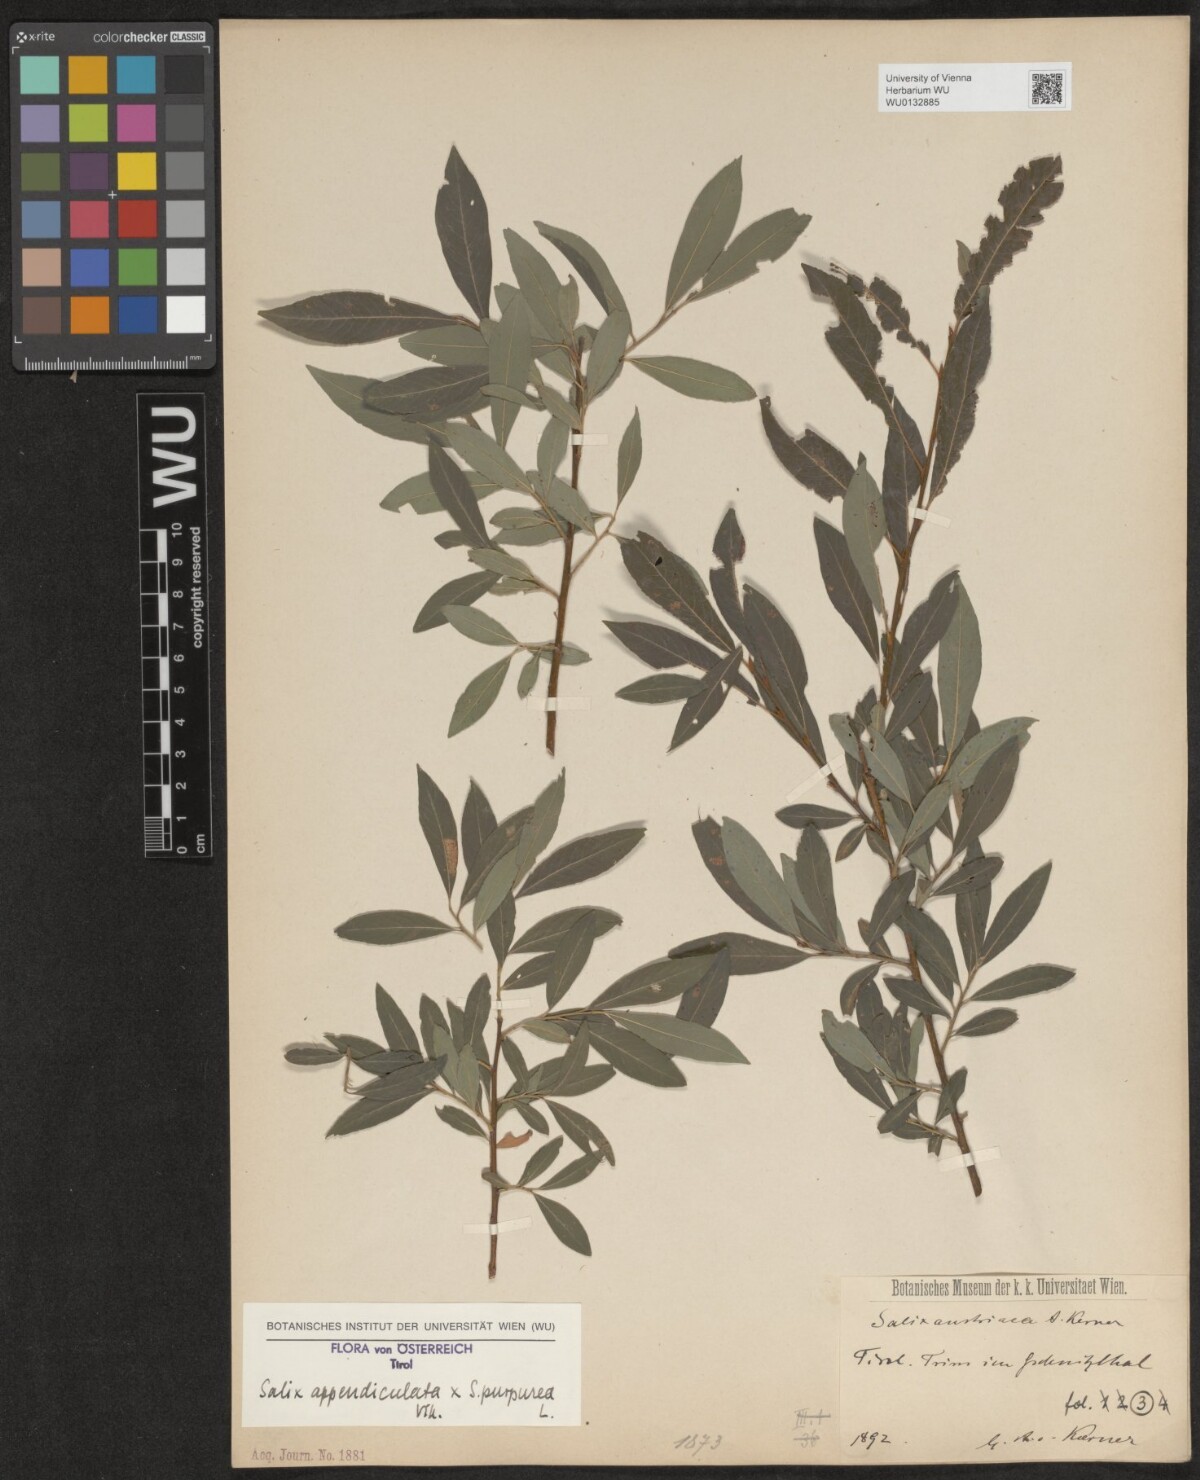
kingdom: Plantae
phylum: Tracheophyta
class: Magnoliopsida
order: Malpighiales
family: Salicaceae
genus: Salix
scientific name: Salix austriaca
